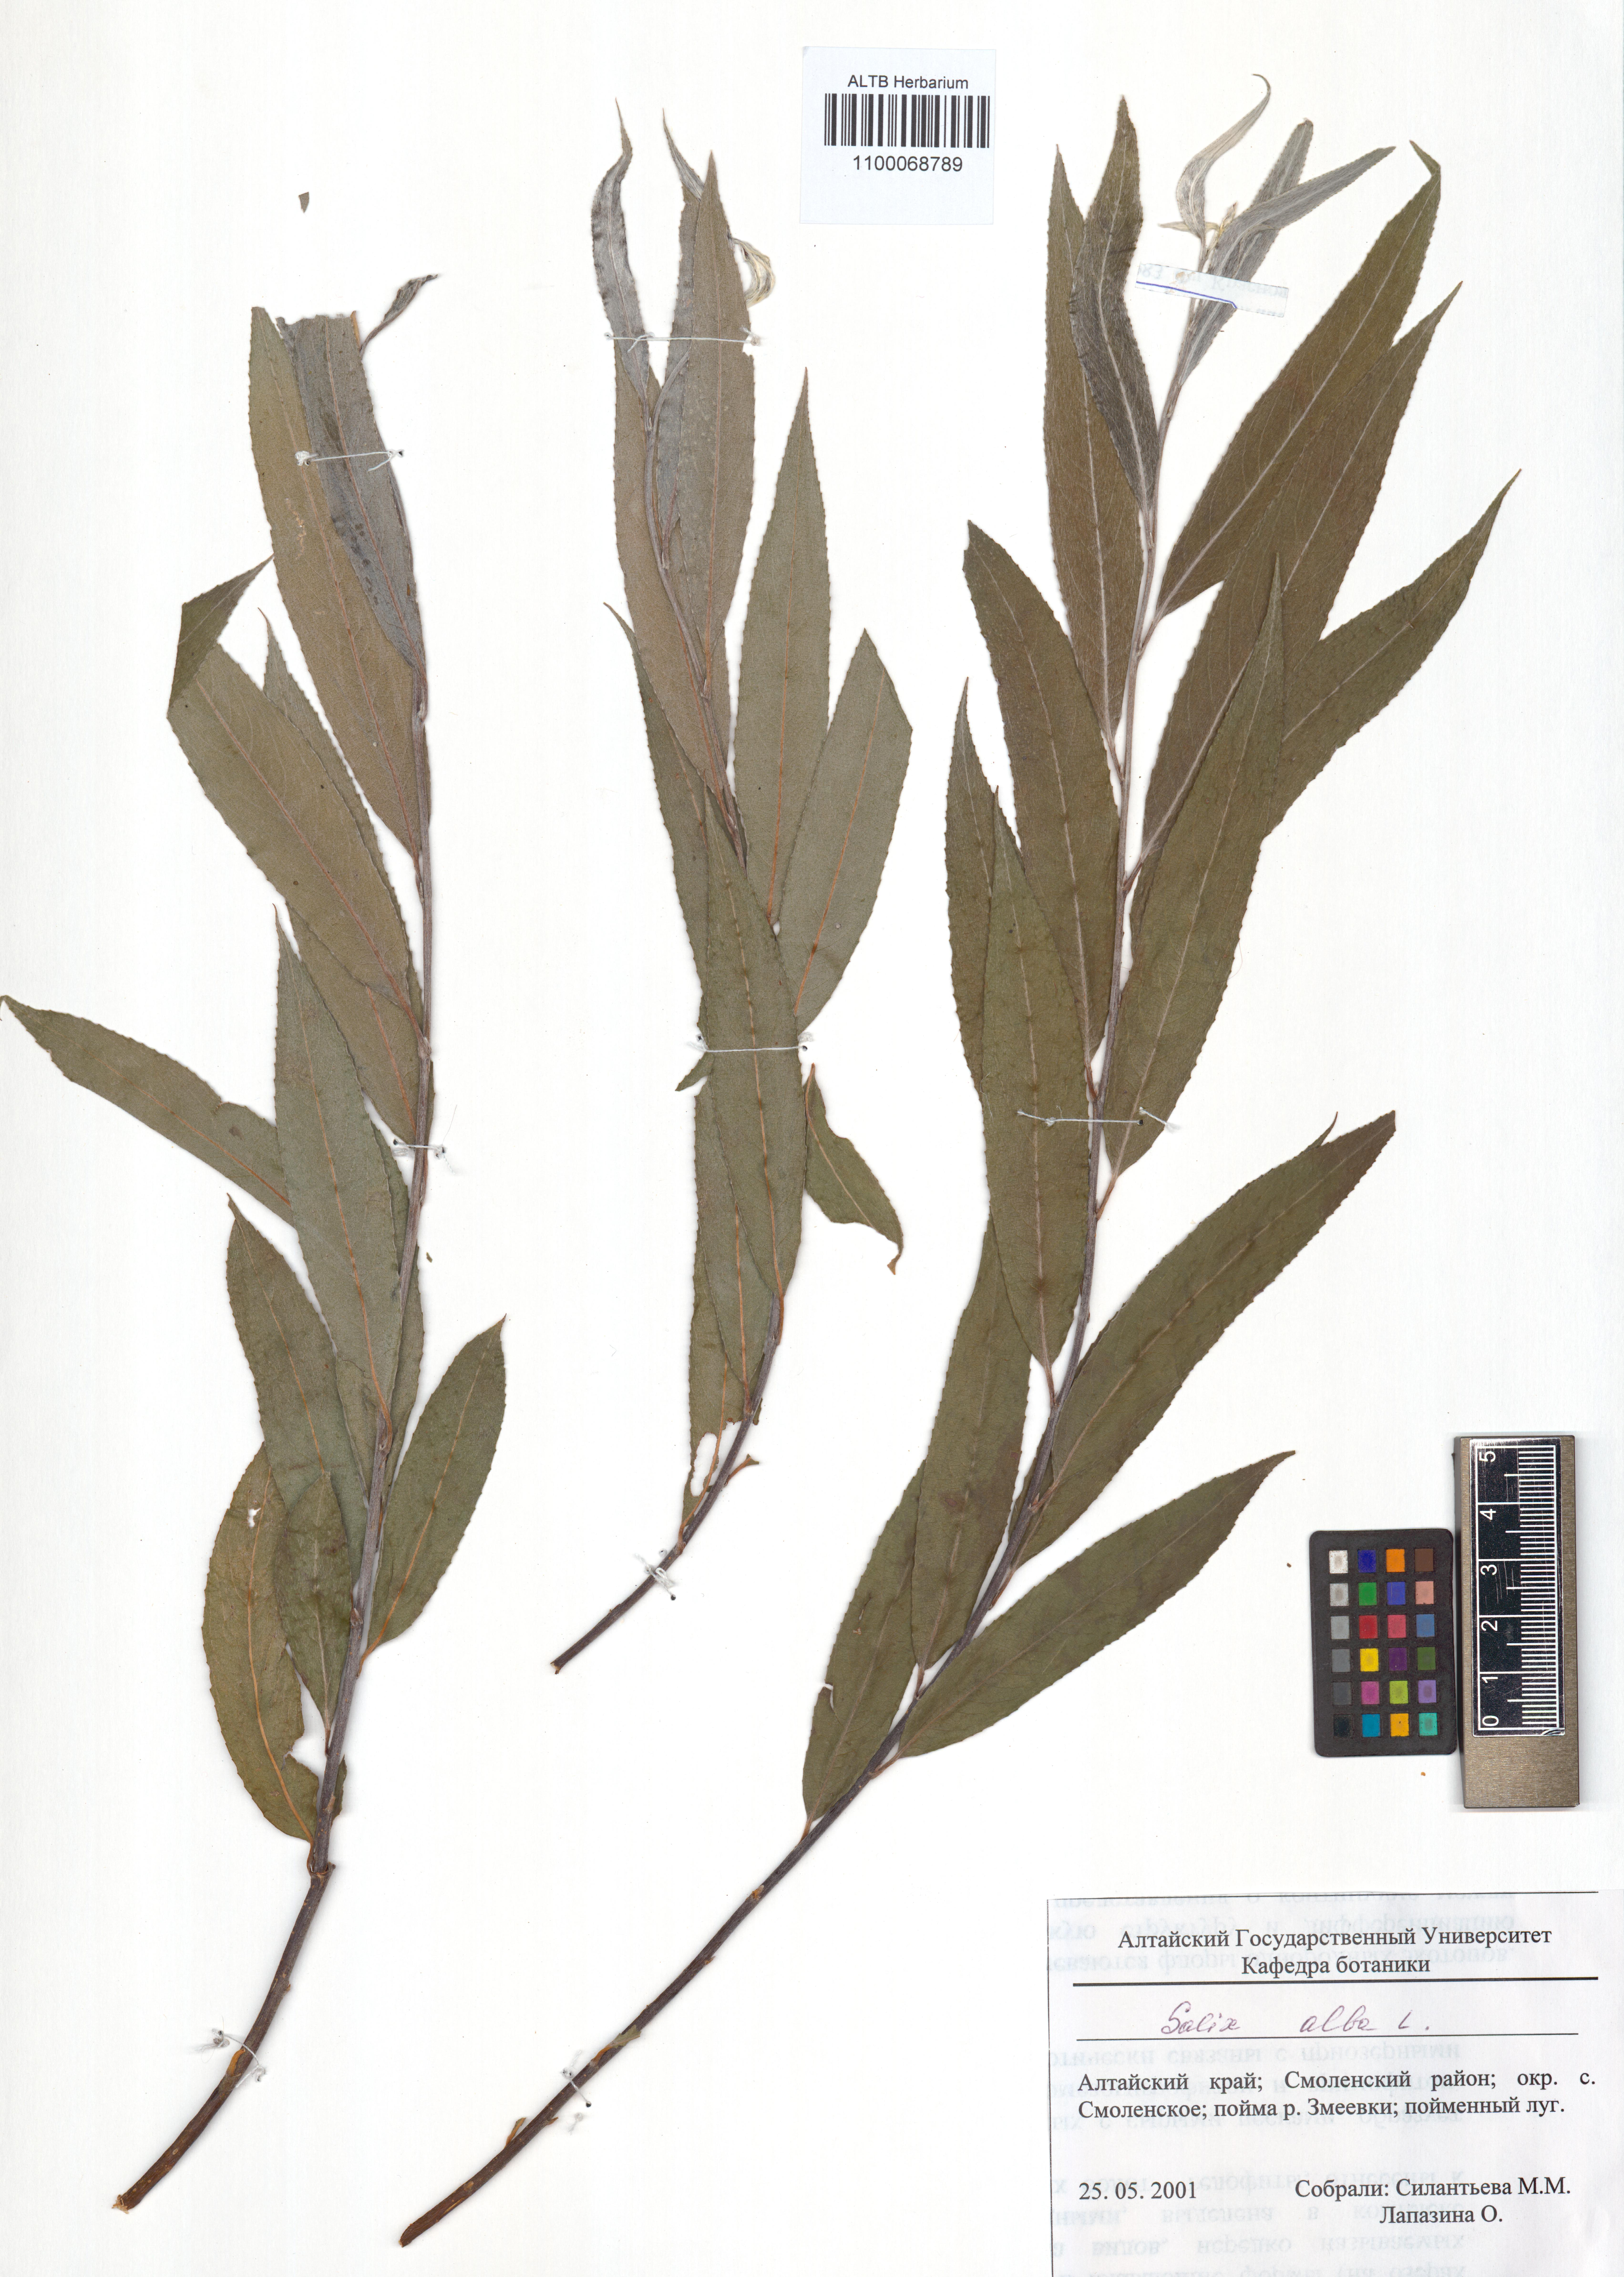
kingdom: Plantae
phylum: Tracheophyta
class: Magnoliopsida
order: Malpighiales
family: Salicaceae
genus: Salix
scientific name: Salix alba
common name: White willow
